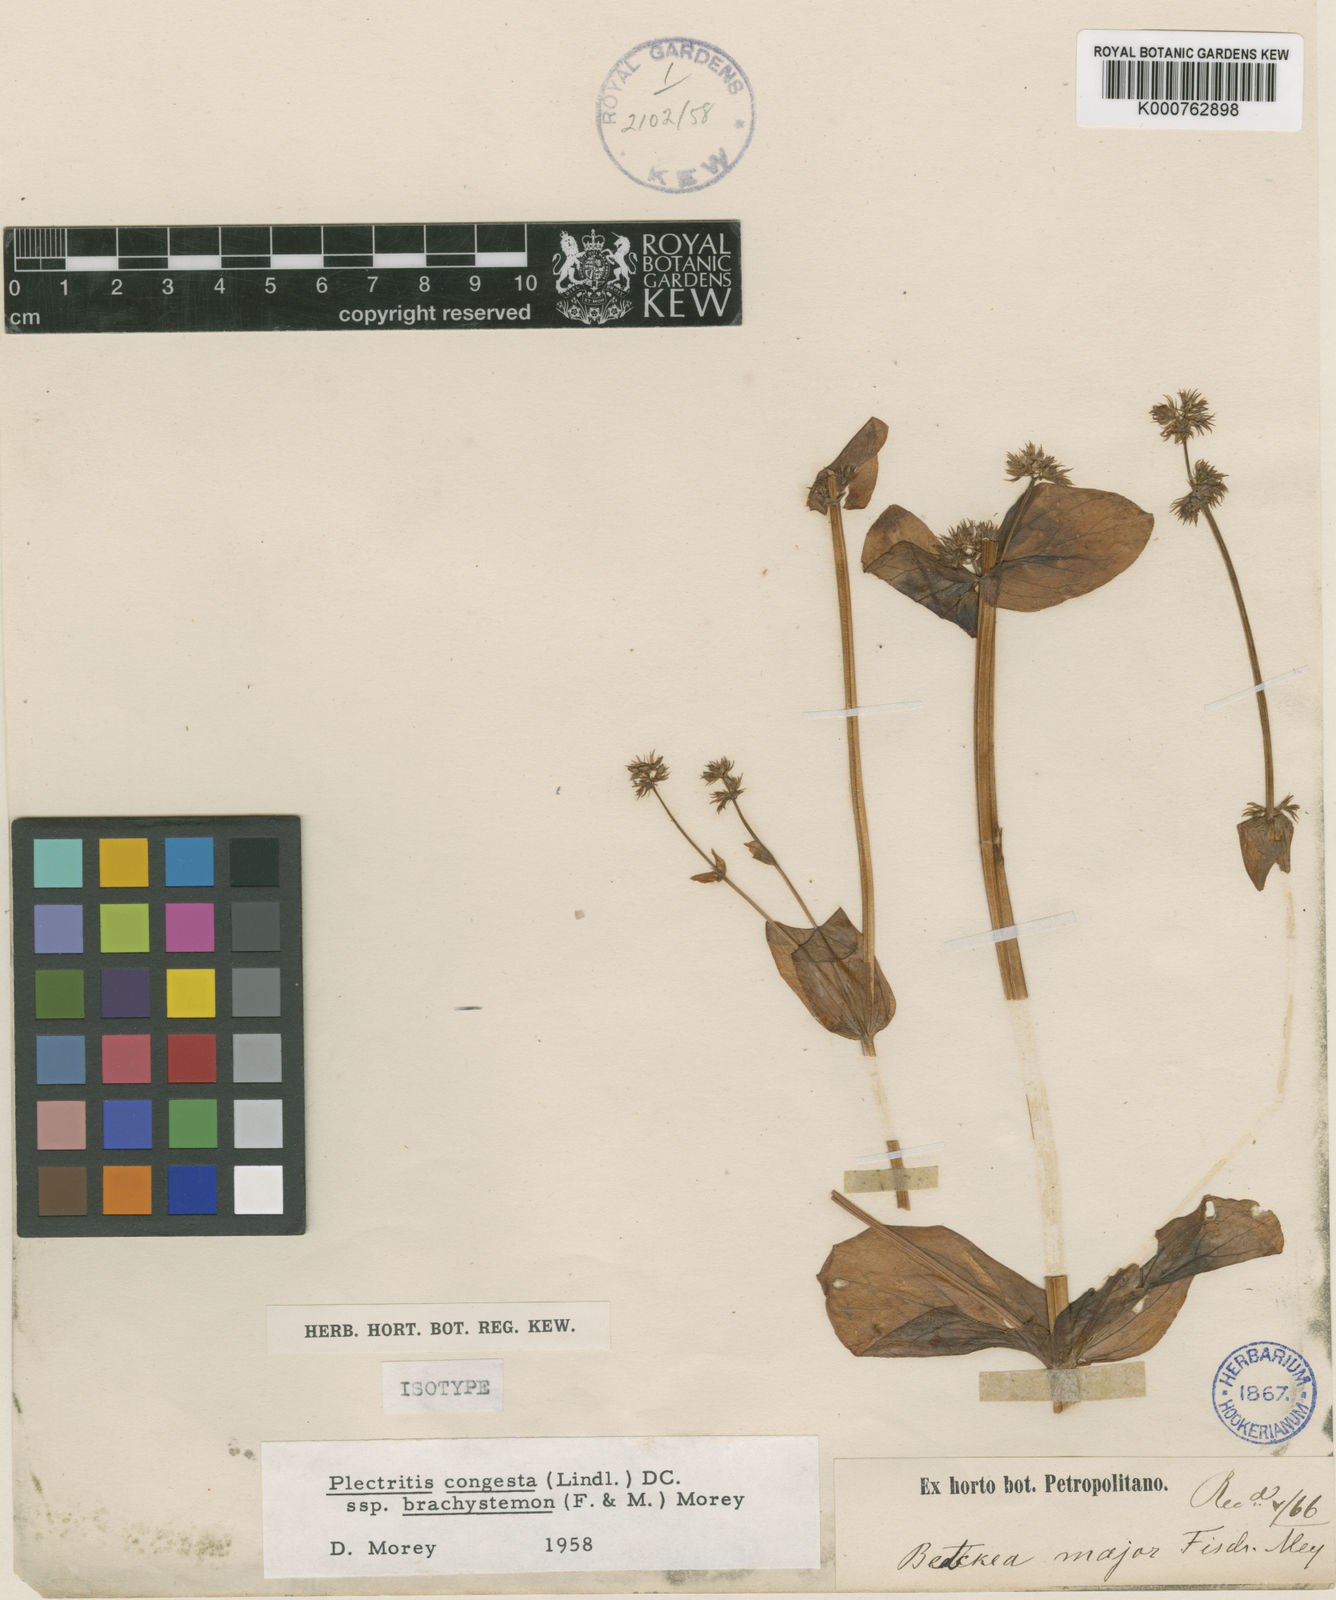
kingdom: Plantae
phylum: Tracheophyta
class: Magnoliopsida
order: Dipsacales
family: Caprifoliaceae
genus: Plectritis
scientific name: Plectritis brachystemon
